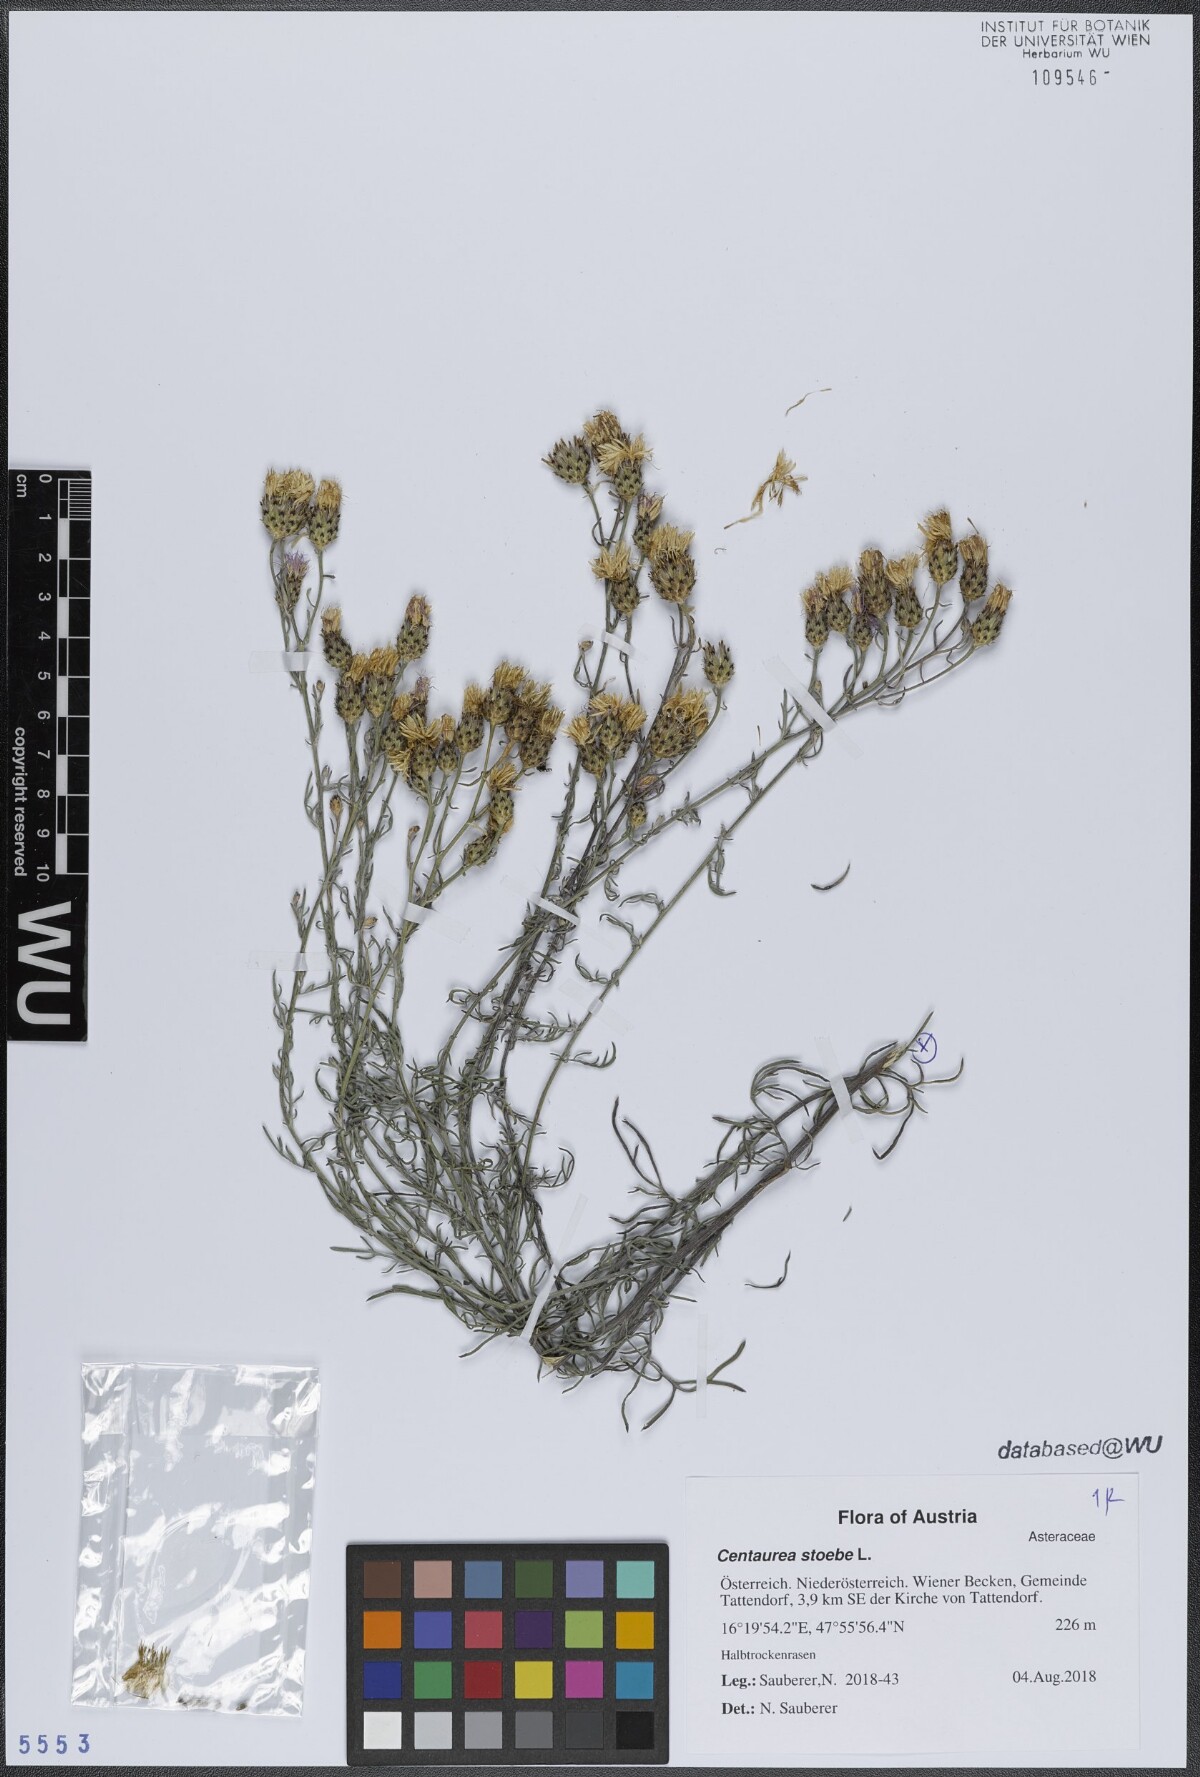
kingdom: Plantae
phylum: Tracheophyta
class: Magnoliopsida
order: Asterales
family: Asteraceae
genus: Centaurea
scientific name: Centaurea stoebe
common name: Spotted knapweed
